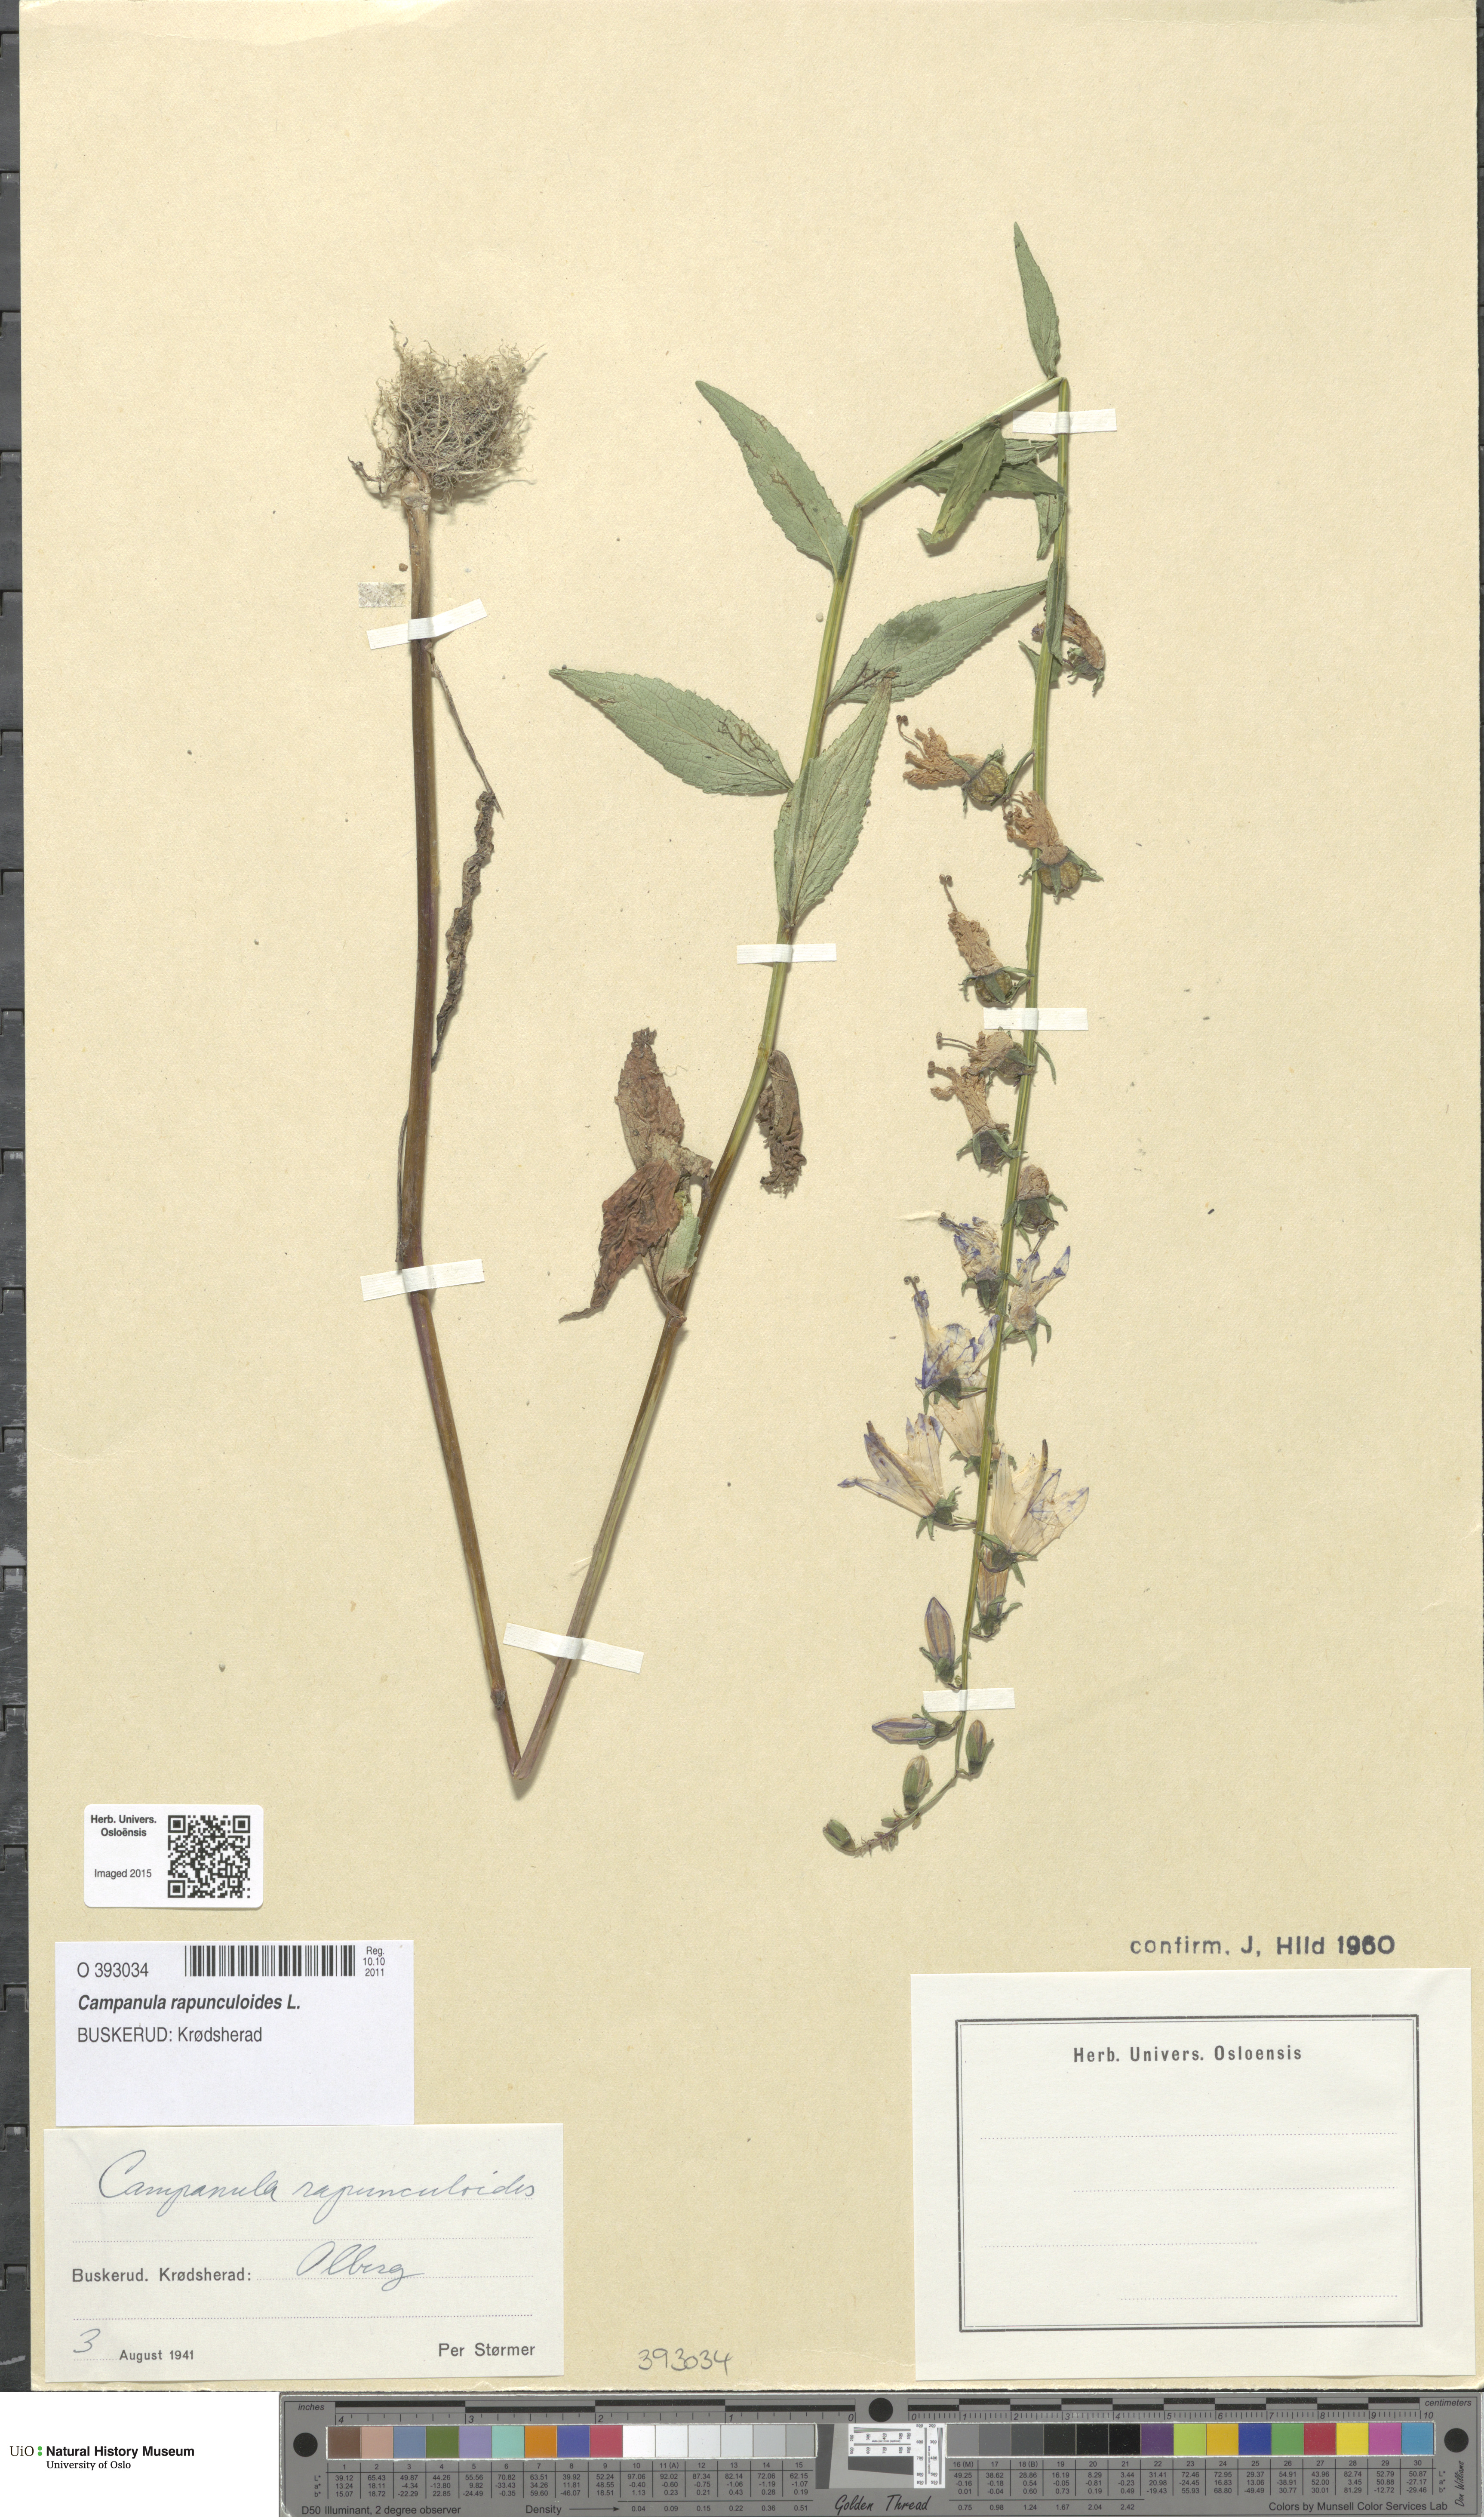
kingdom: Plantae
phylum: Tracheophyta
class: Magnoliopsida
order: Asterales
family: Campanulaceae
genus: Campanula
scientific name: Campanula rapunculoides
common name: Creeping bellflower
